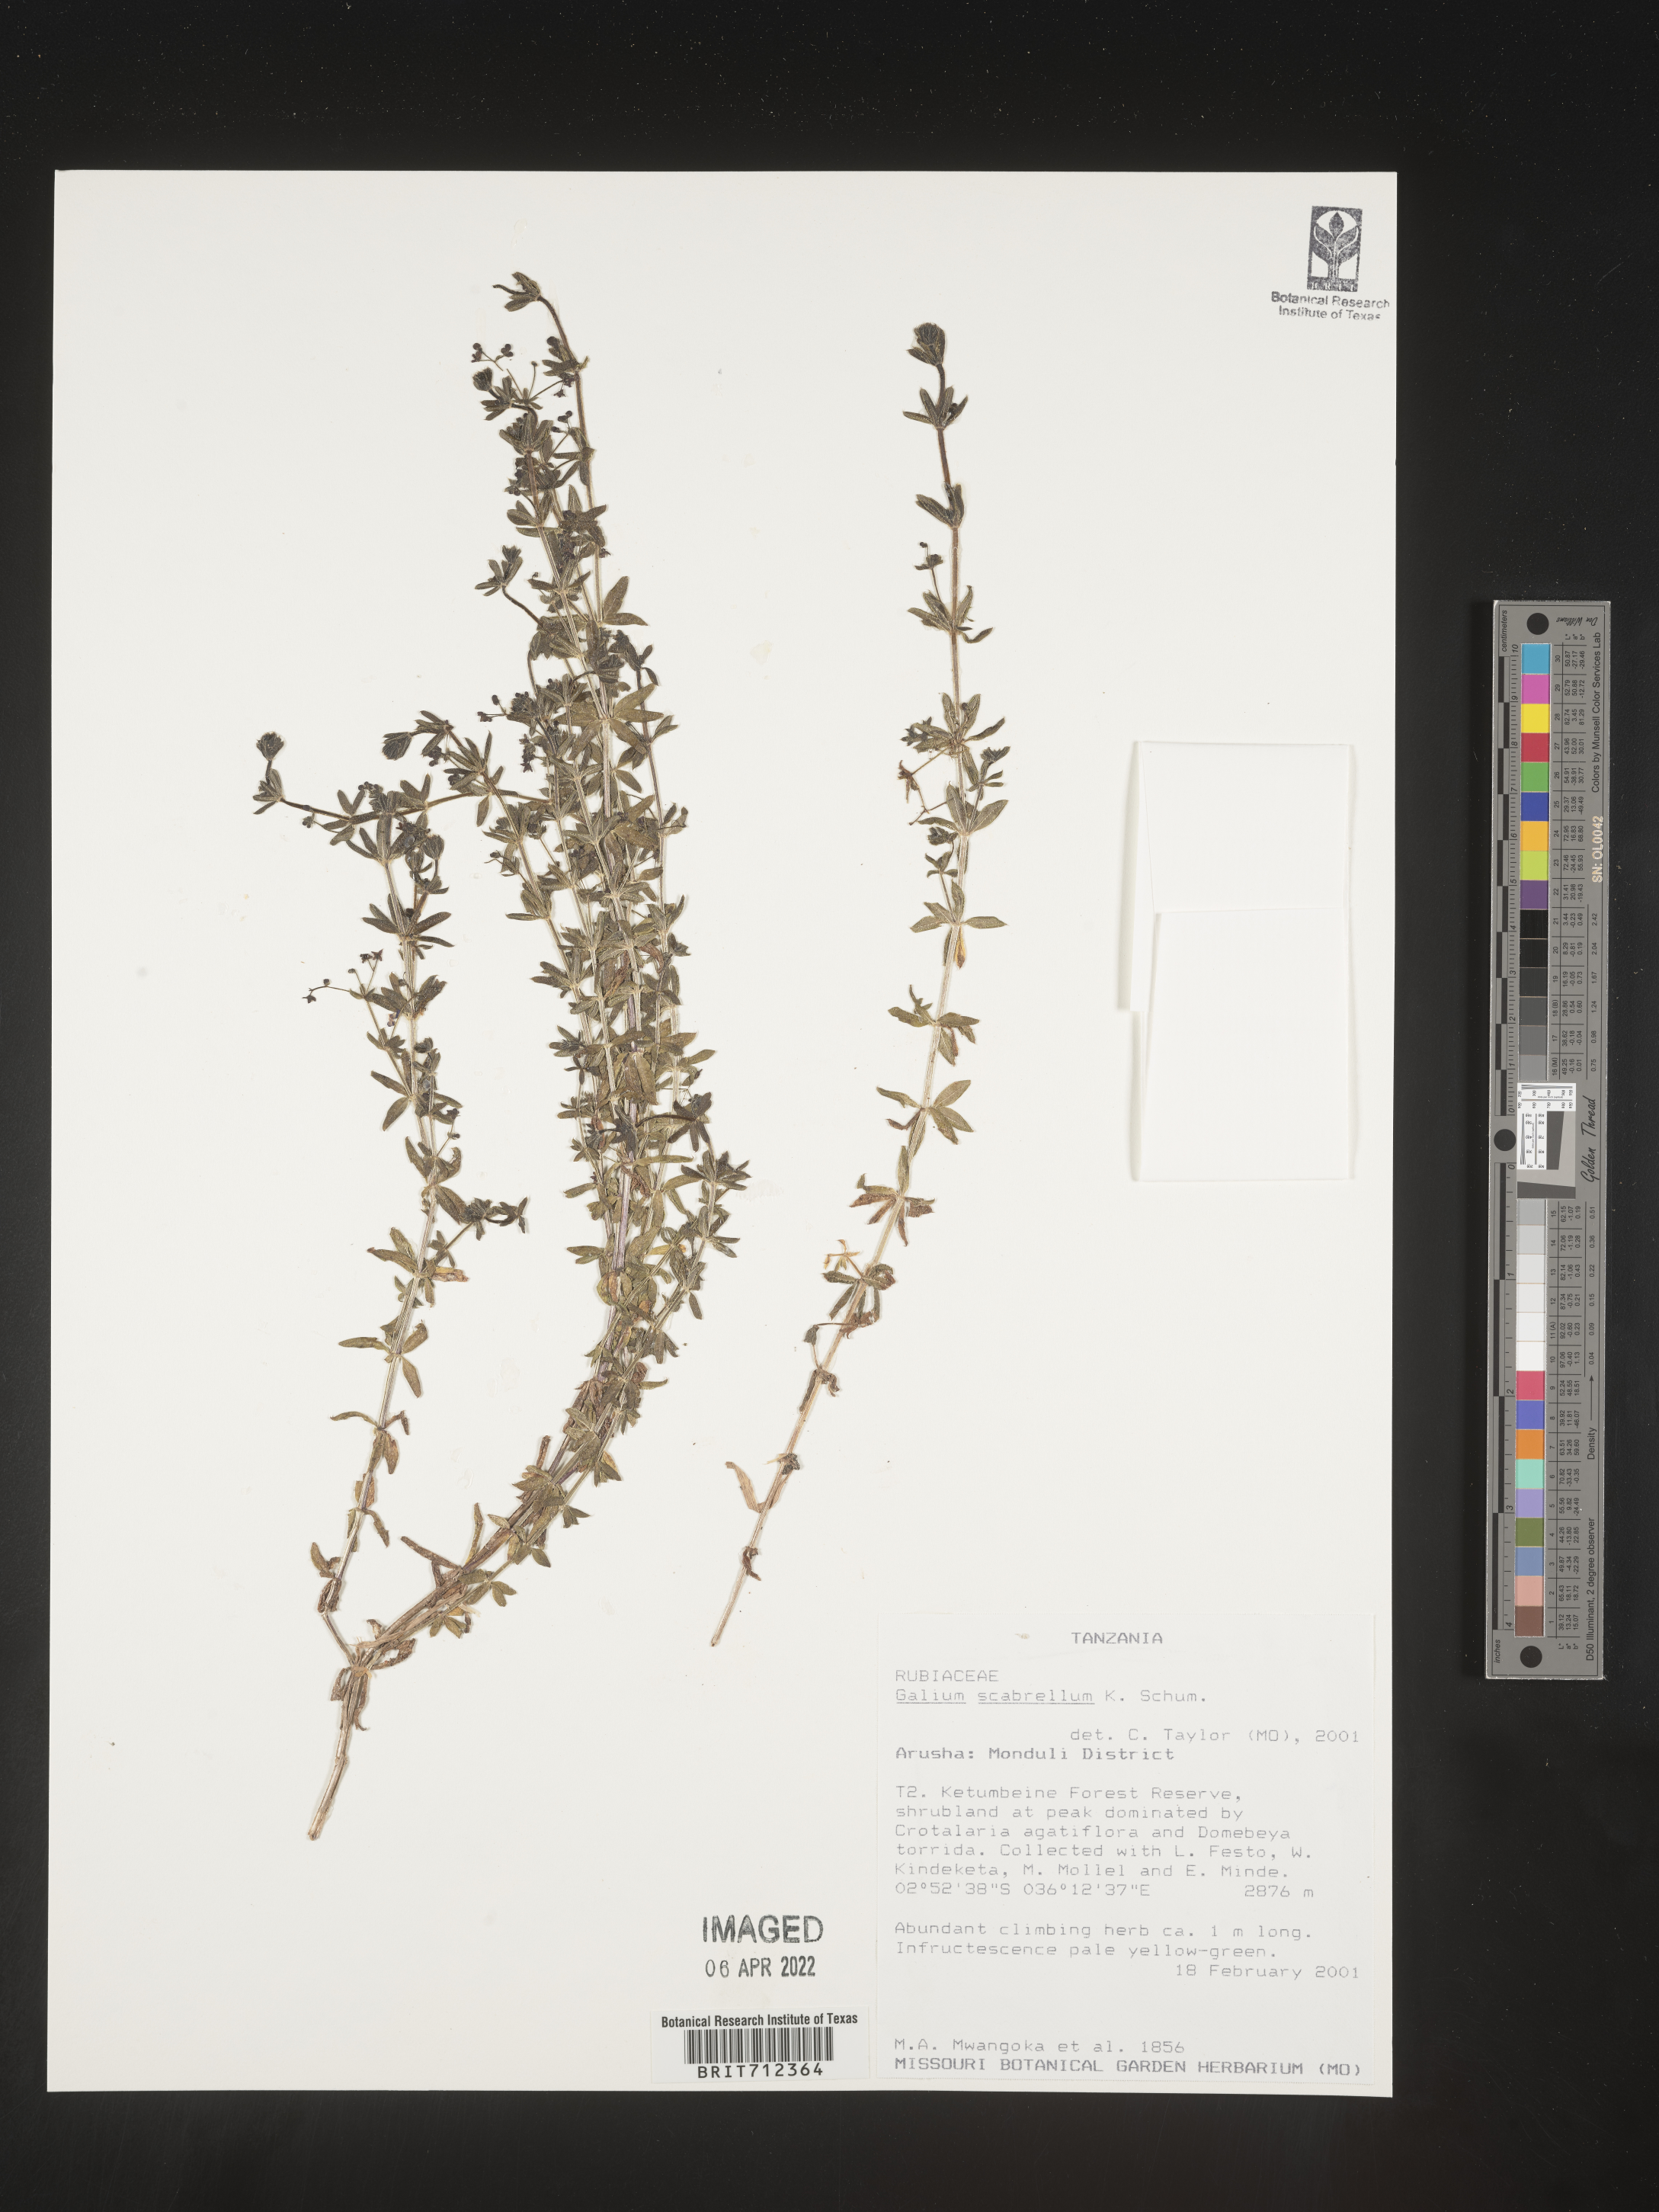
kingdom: Plantae
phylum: Tracheophyta
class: Magnoliopsida
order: Gentianales
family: Rubiaceae
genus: Galium
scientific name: Galium
